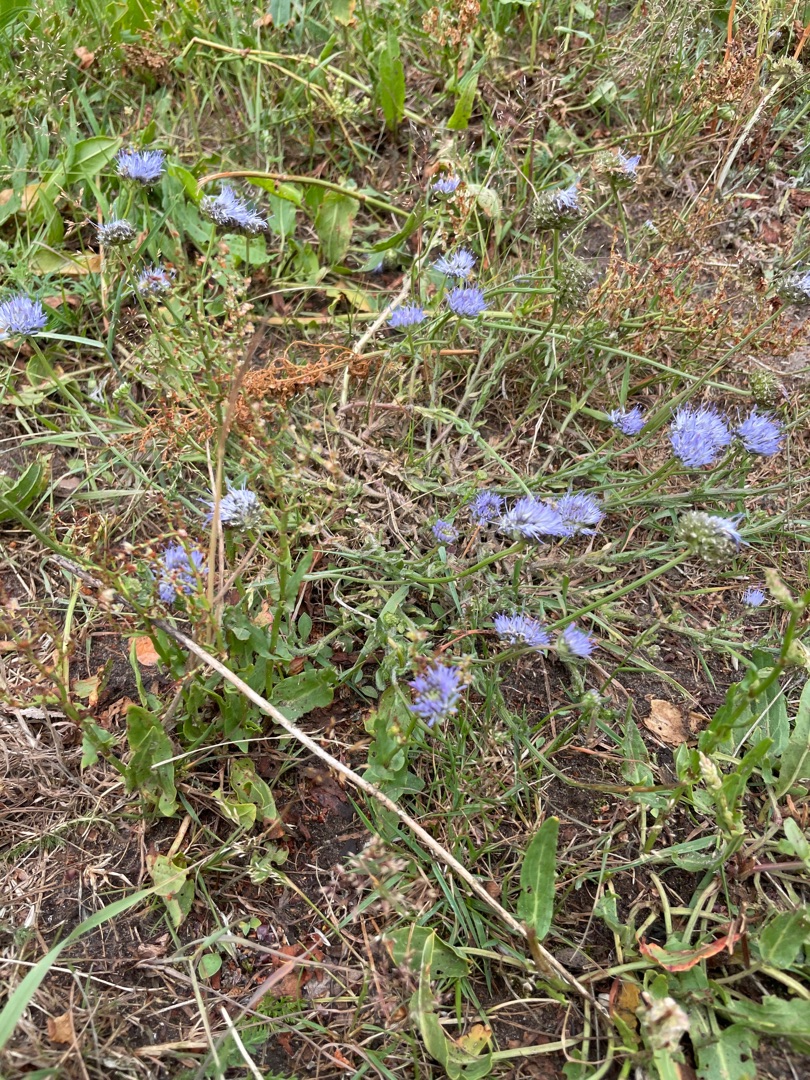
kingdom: Plantae
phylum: Tracheophyta
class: Magnoliopsida
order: Asterales
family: Campanulaceae
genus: Jasione
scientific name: Jasione montana
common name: Blåmunke
